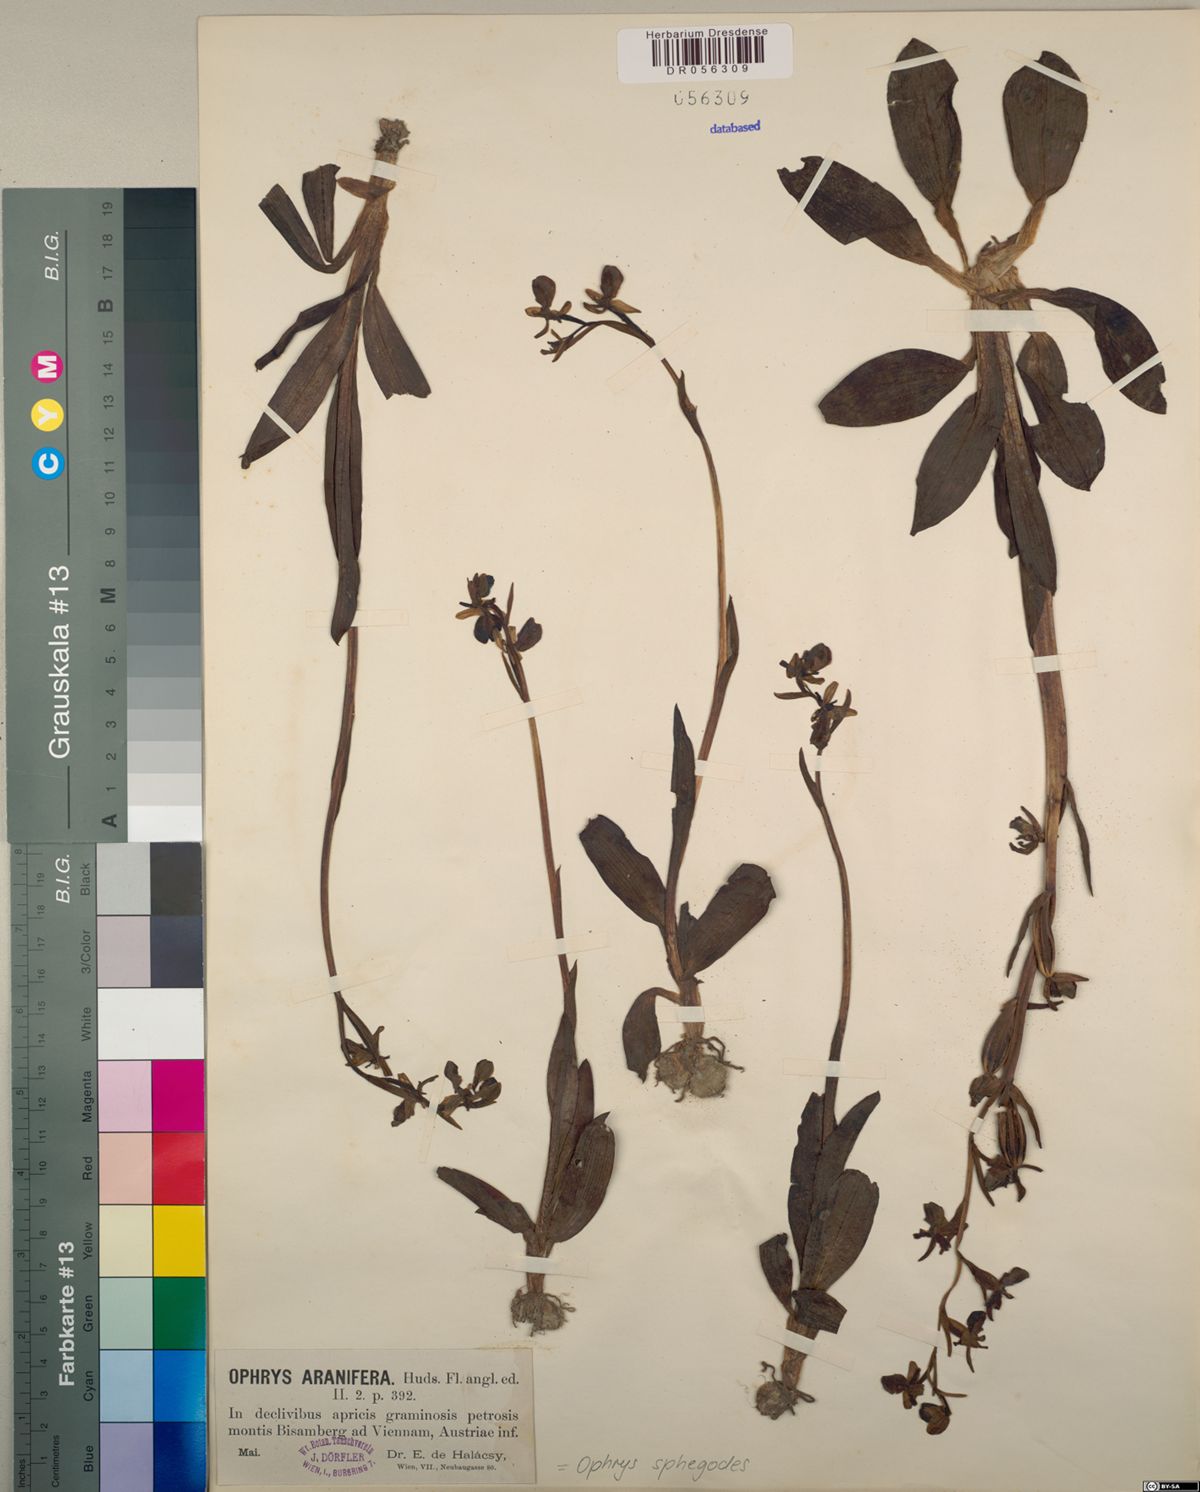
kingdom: Plantae
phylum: Tracheophyta
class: Liliopsida
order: Asparagales
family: Orchidaceae
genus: Ophrys
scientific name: Ophrys sphegodes
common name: Early spider-orchid
